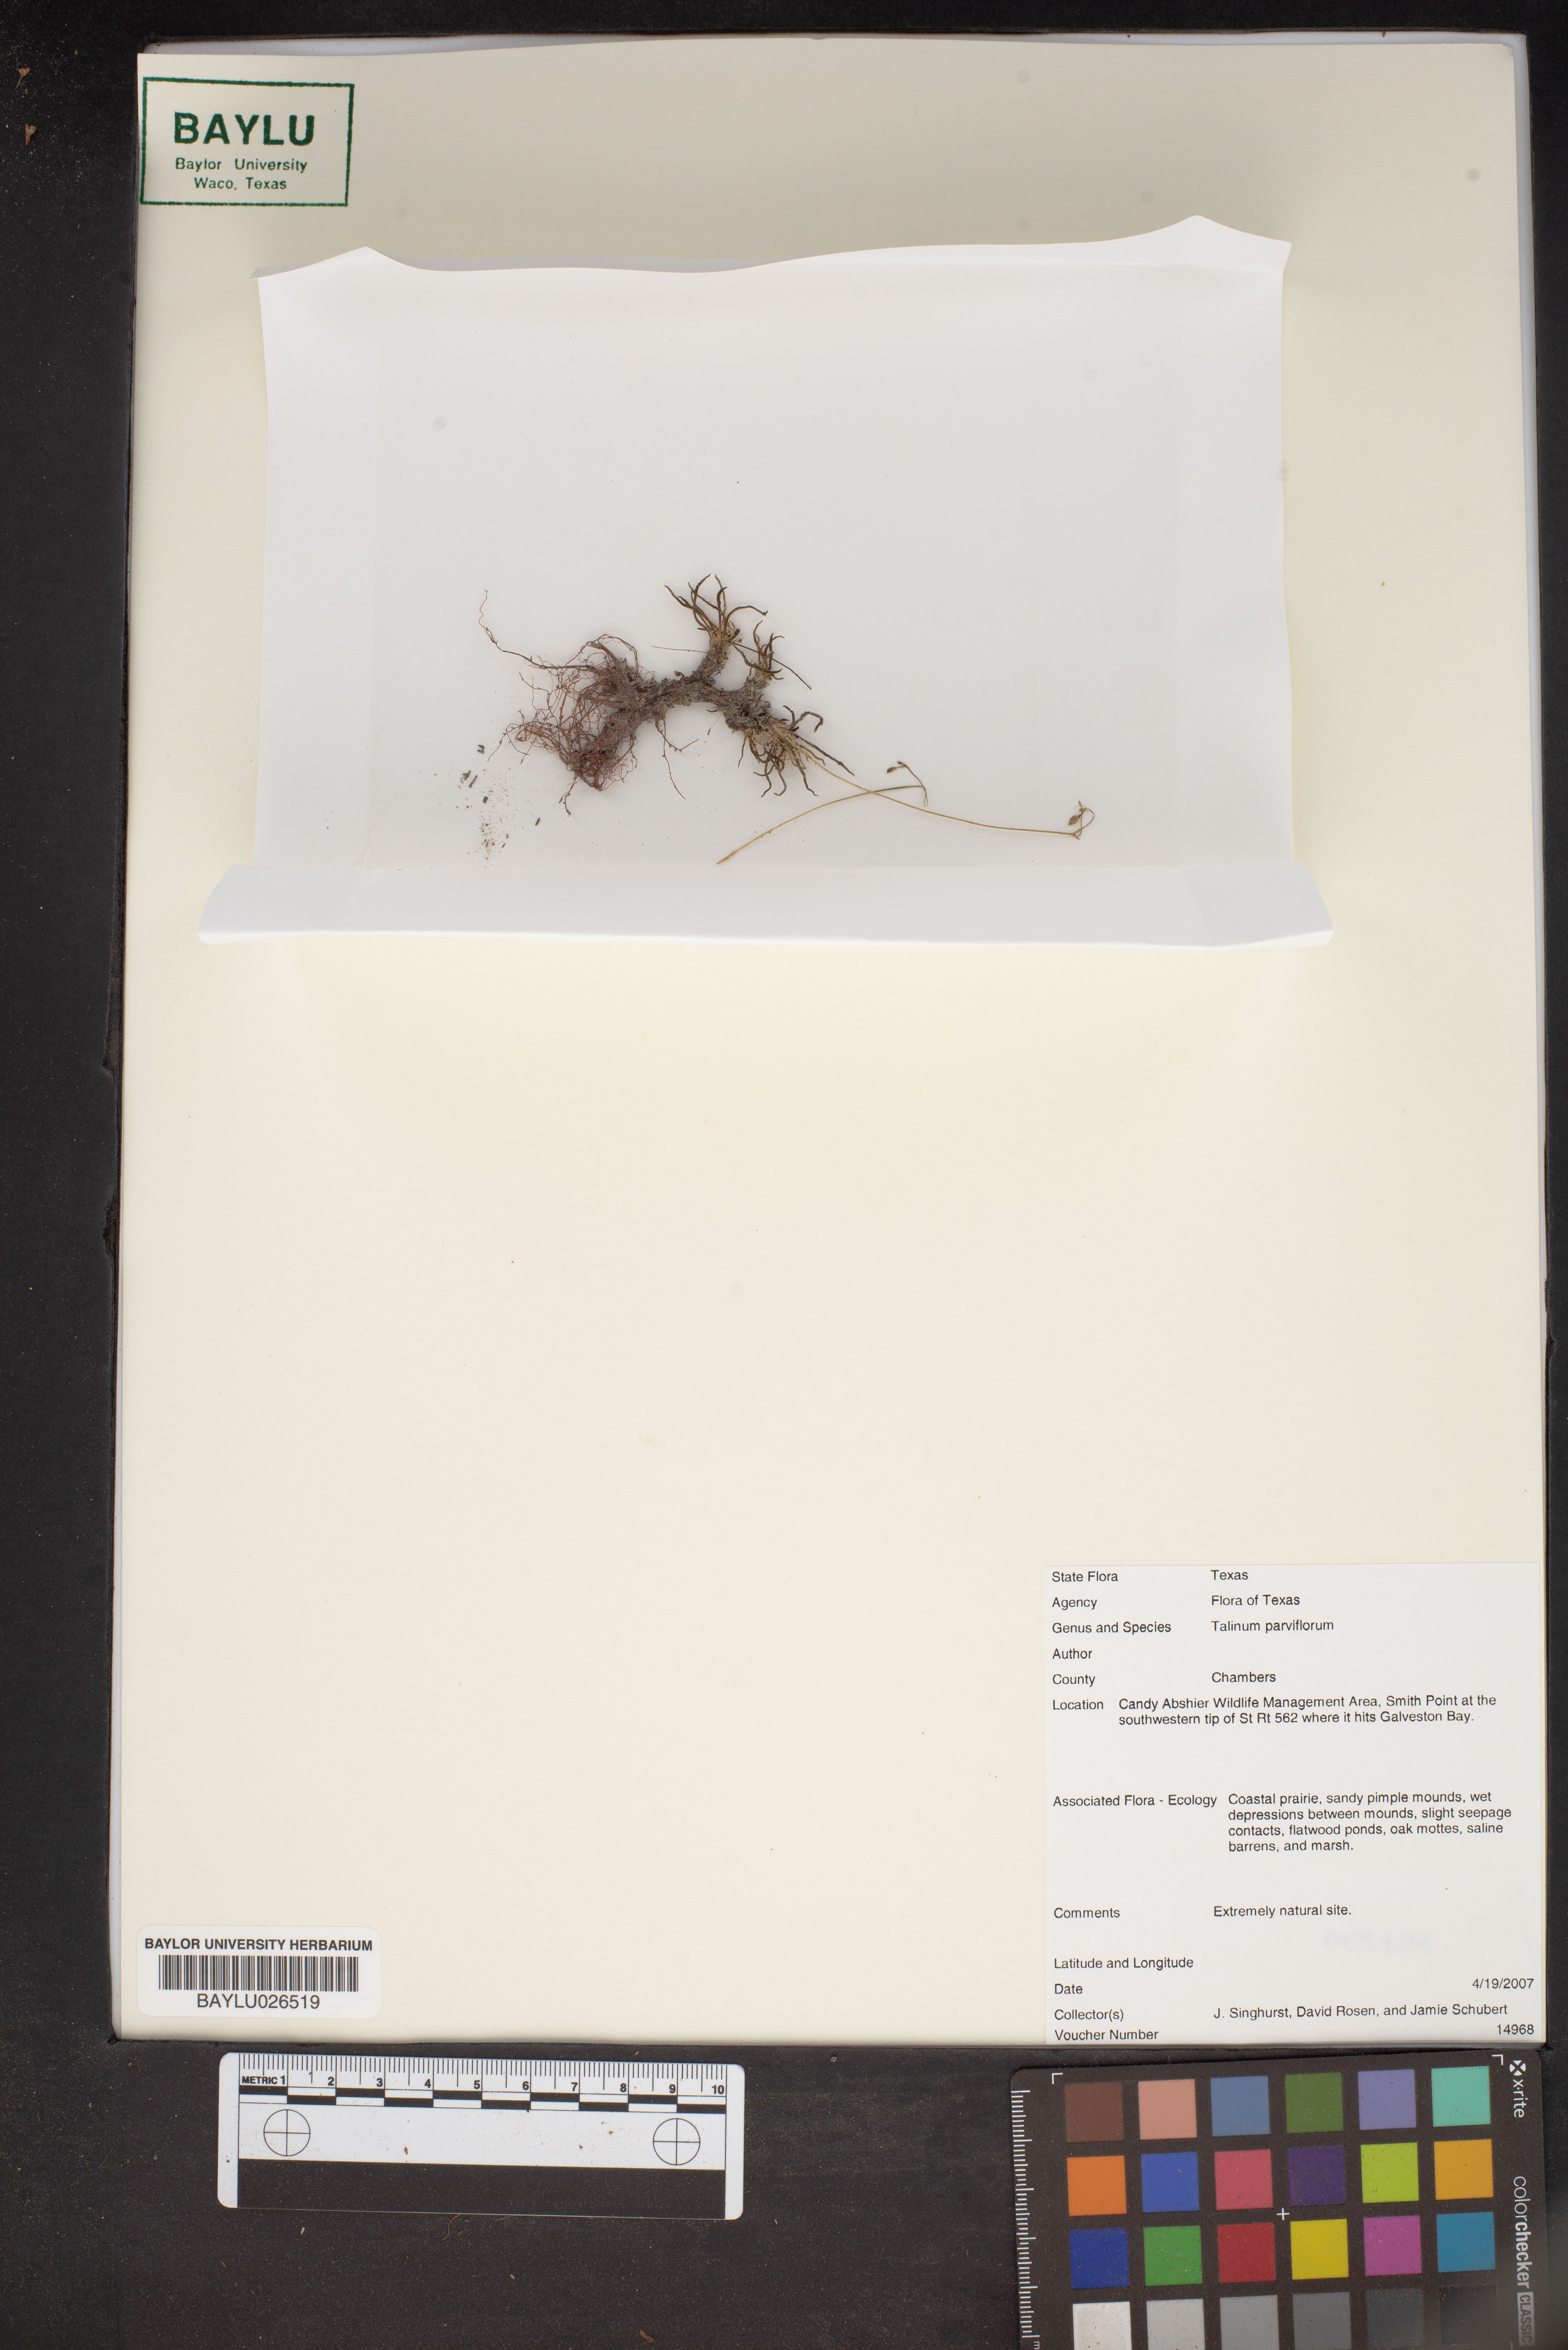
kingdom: Plantae
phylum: Tracheophyta
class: Magnoliopsida
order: Caryophyllales
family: Montiaceae
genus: Phemeranthus
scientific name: Phemeranthus parviflorus
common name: Sunbright
